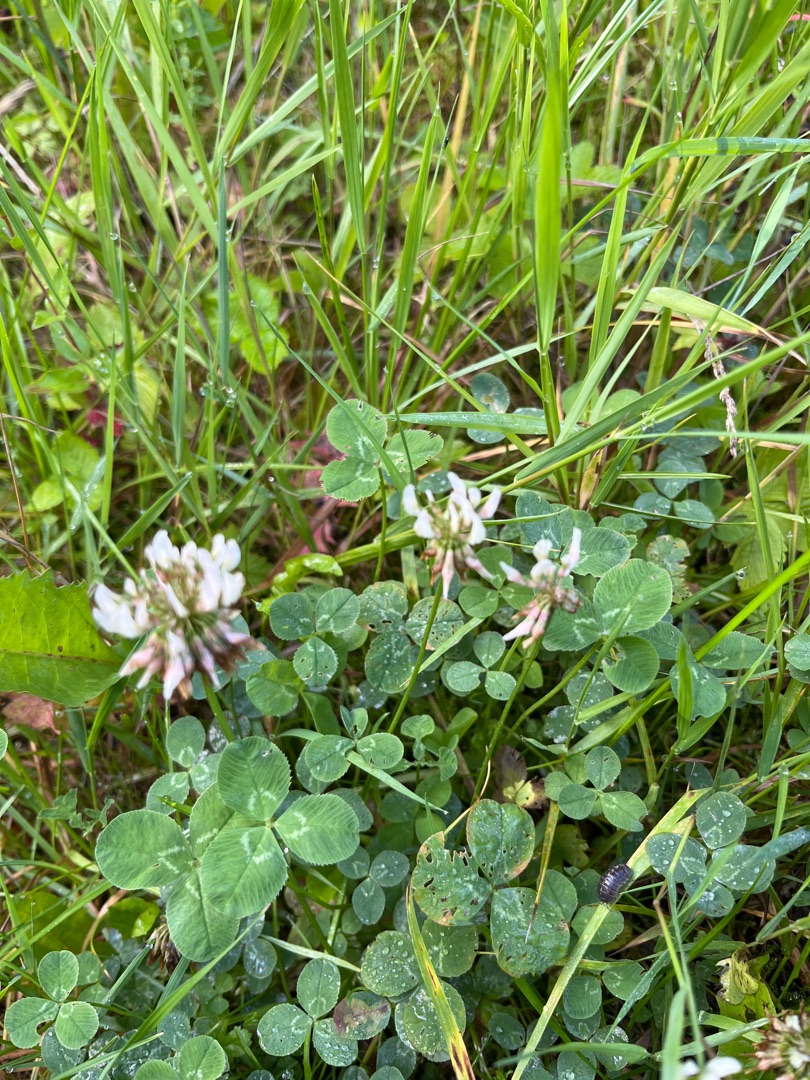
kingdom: Plantae
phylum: Tracheophyta
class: Magnoliopsida
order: Fabales
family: Fabaceae
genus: Trifolium
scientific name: Trifolium repens
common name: Hvid-kløver
